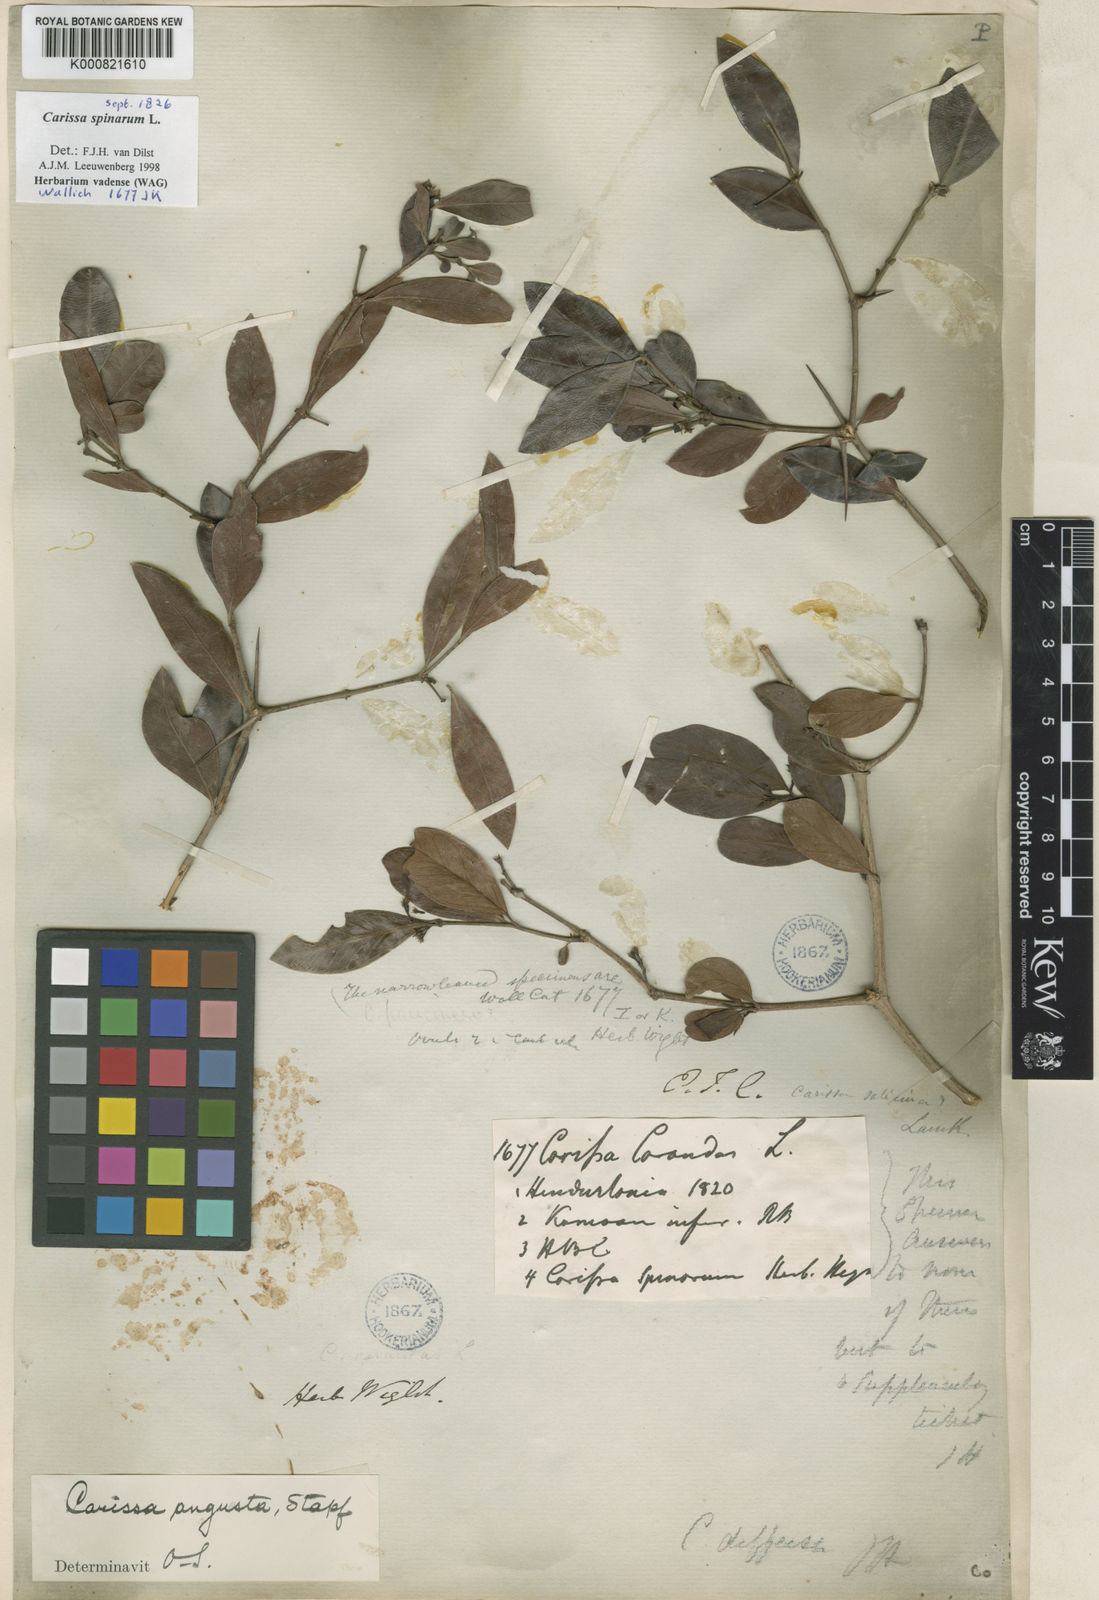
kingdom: Plantae
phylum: Tracheophyta
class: Magnoliopsida
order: Gentianales
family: Apocynaceae
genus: Carissa
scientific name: Carissa spinarum
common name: Egyptian carissa
